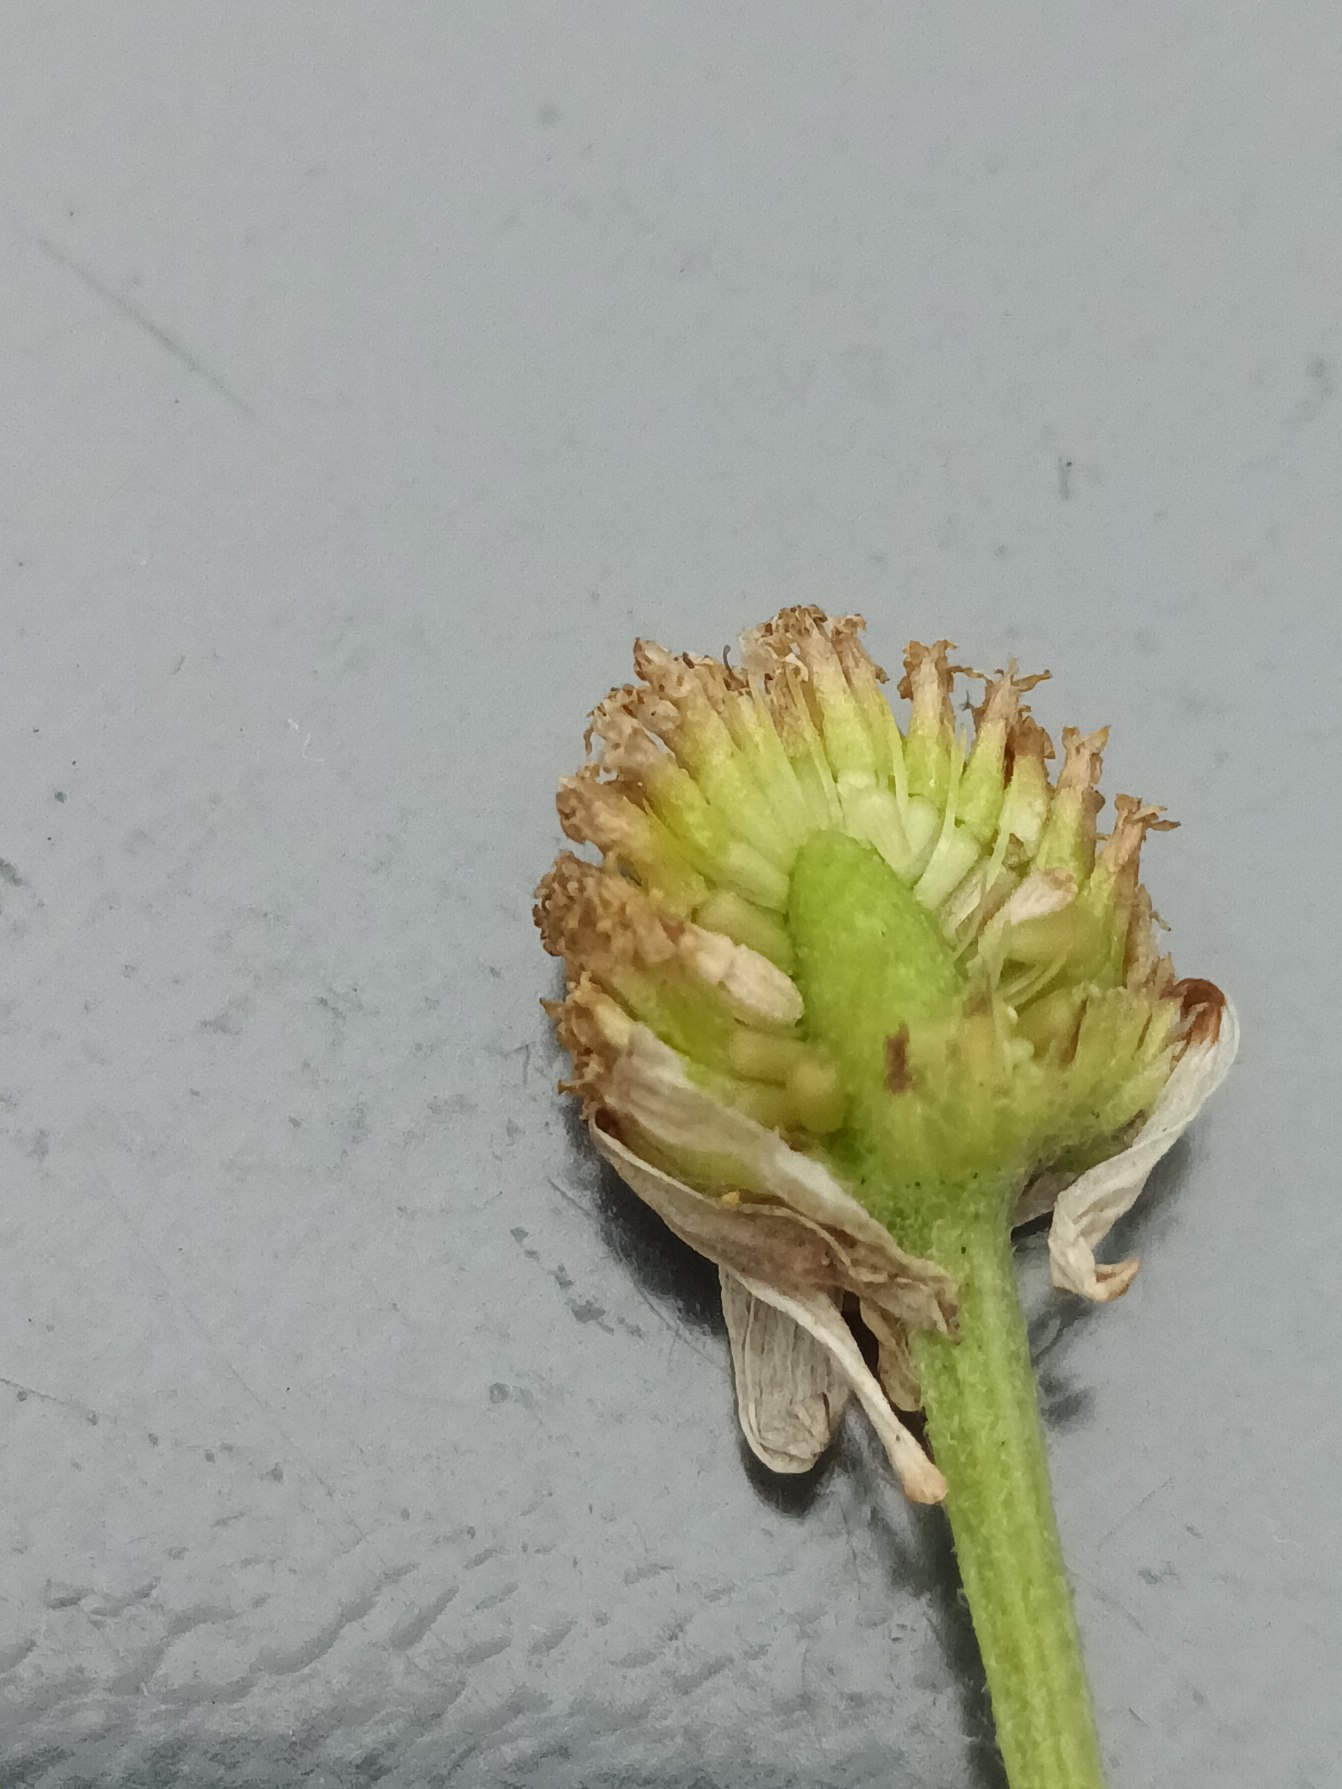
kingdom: Plantae
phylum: Tracheophyta
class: Magnoliopsida
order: Asterales
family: Asteraceae
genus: Anthemis
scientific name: Anthemis cotula
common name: Stinkende gåseurt
